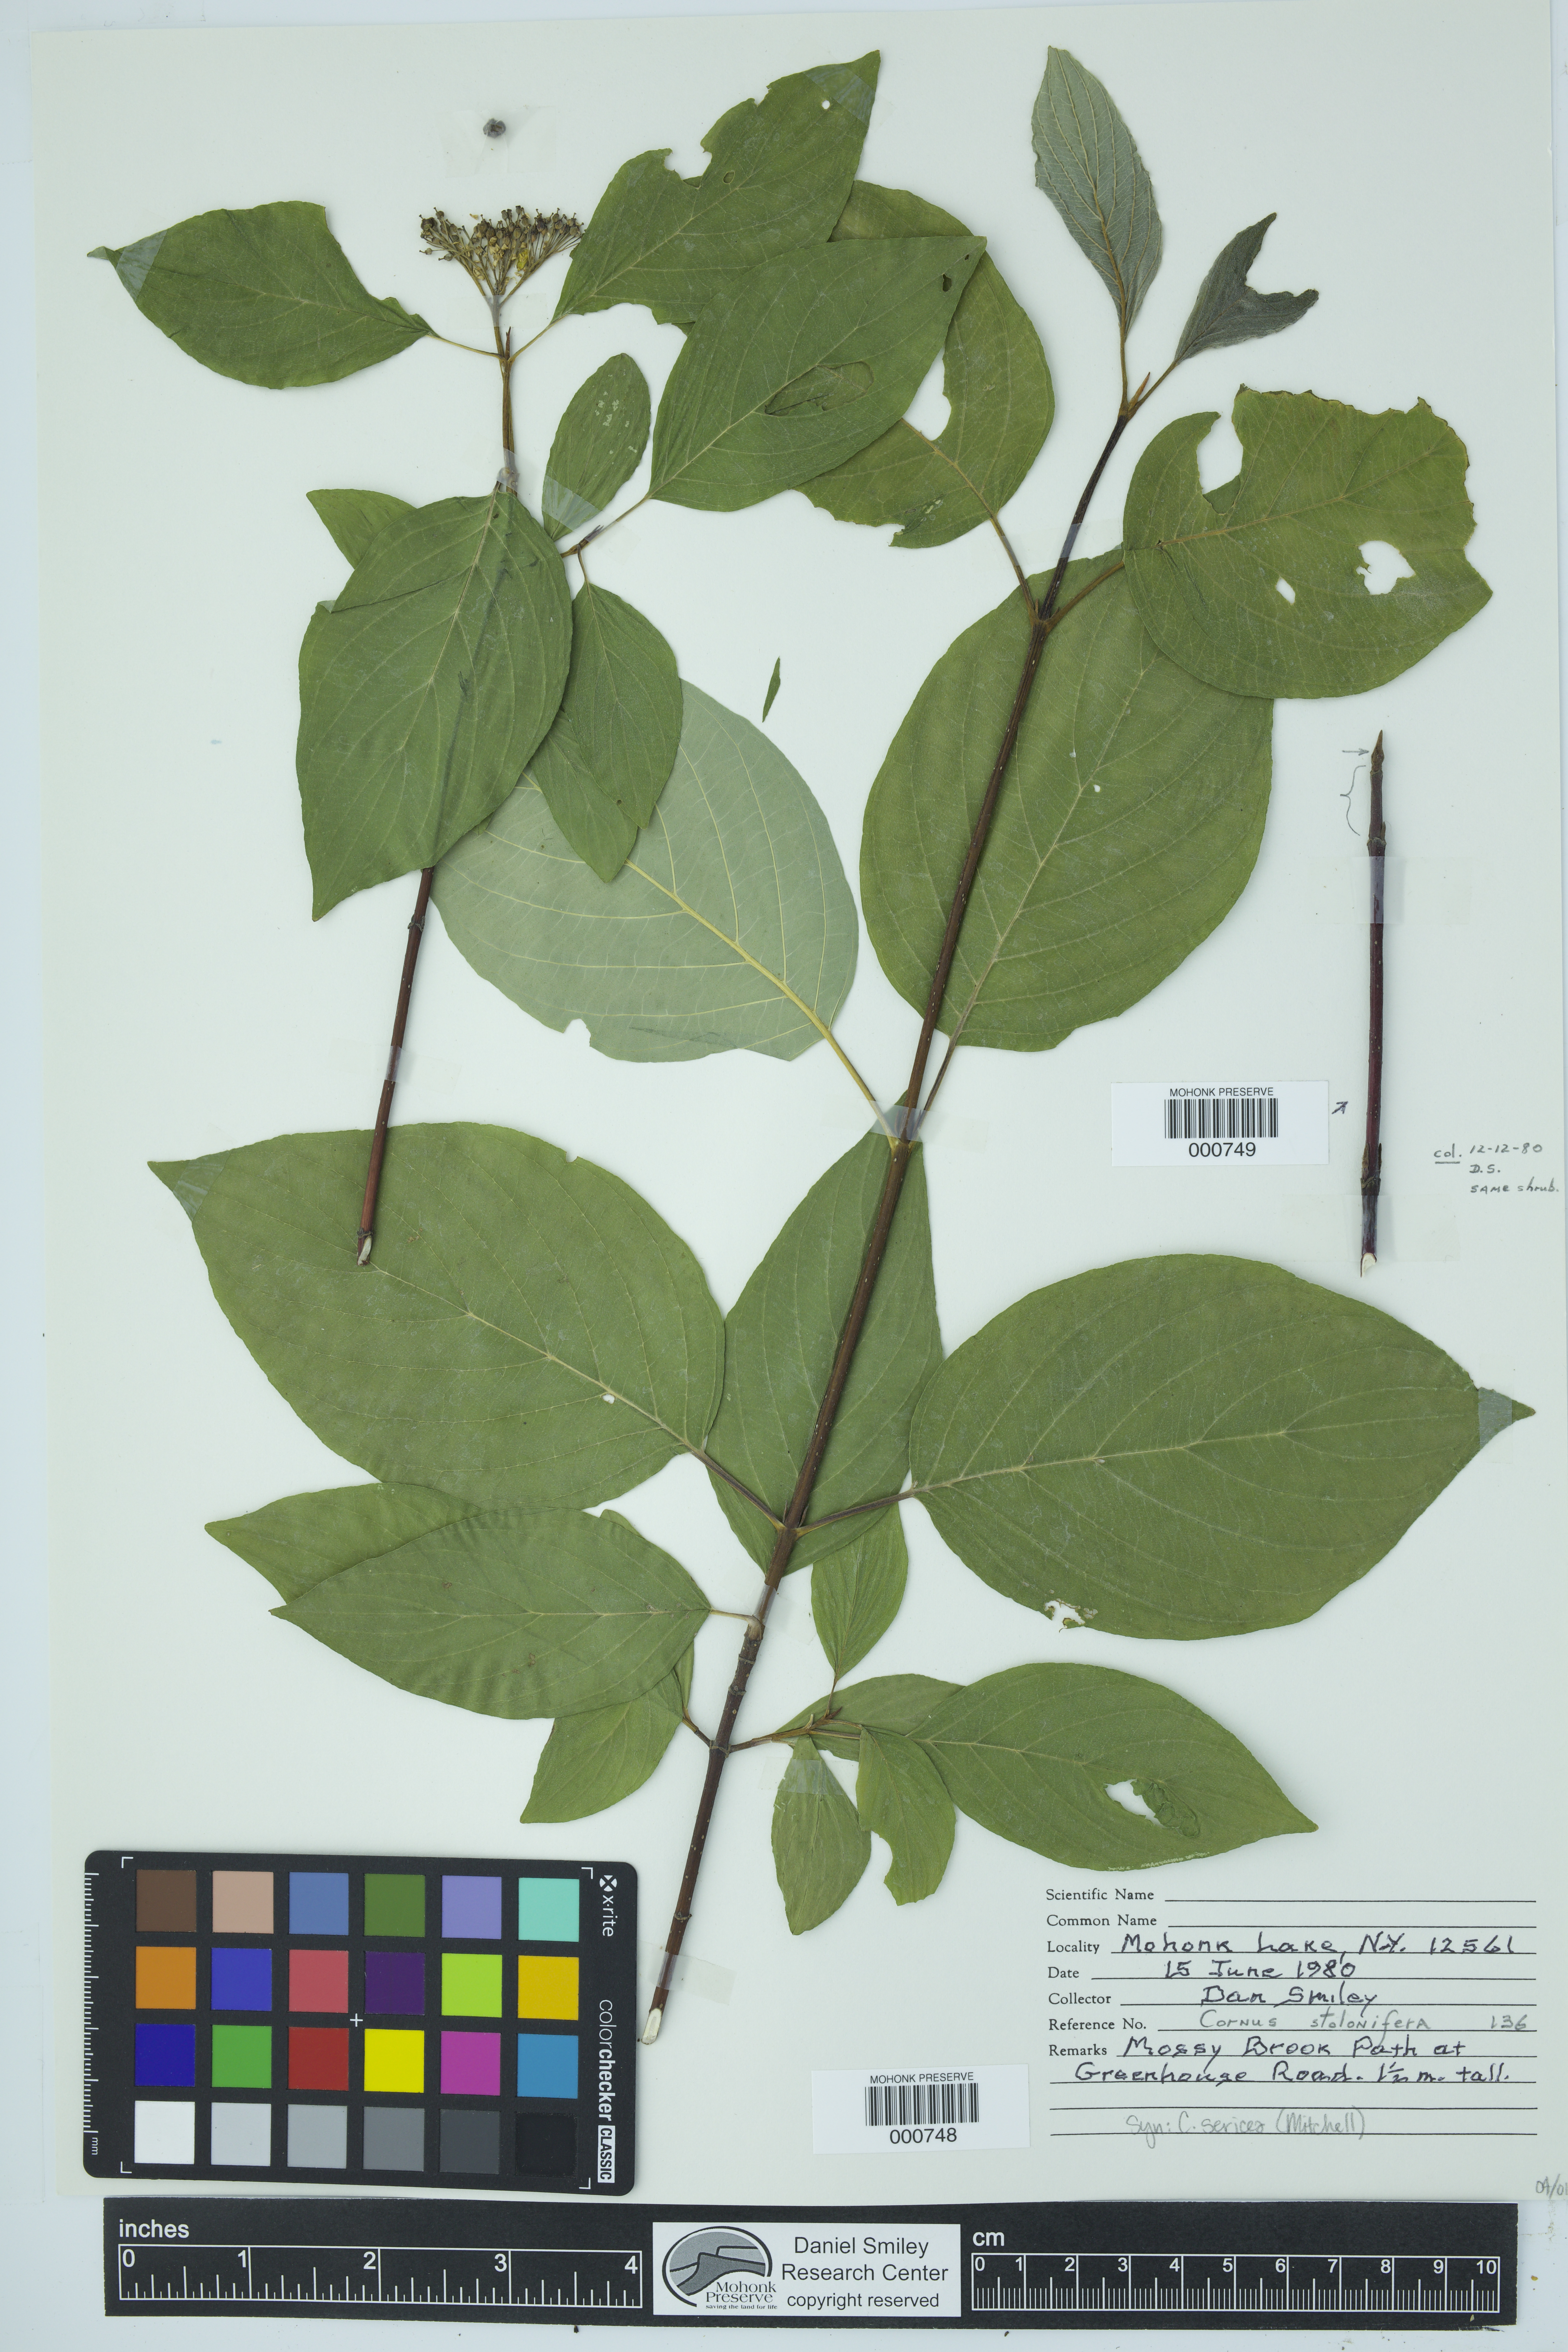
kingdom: Plantae
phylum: Tracheophyta
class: Magnoliopsida
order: Cornales
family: Cornaceae
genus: Cornus
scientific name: Cornus sericea
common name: Red-osier dogwood
